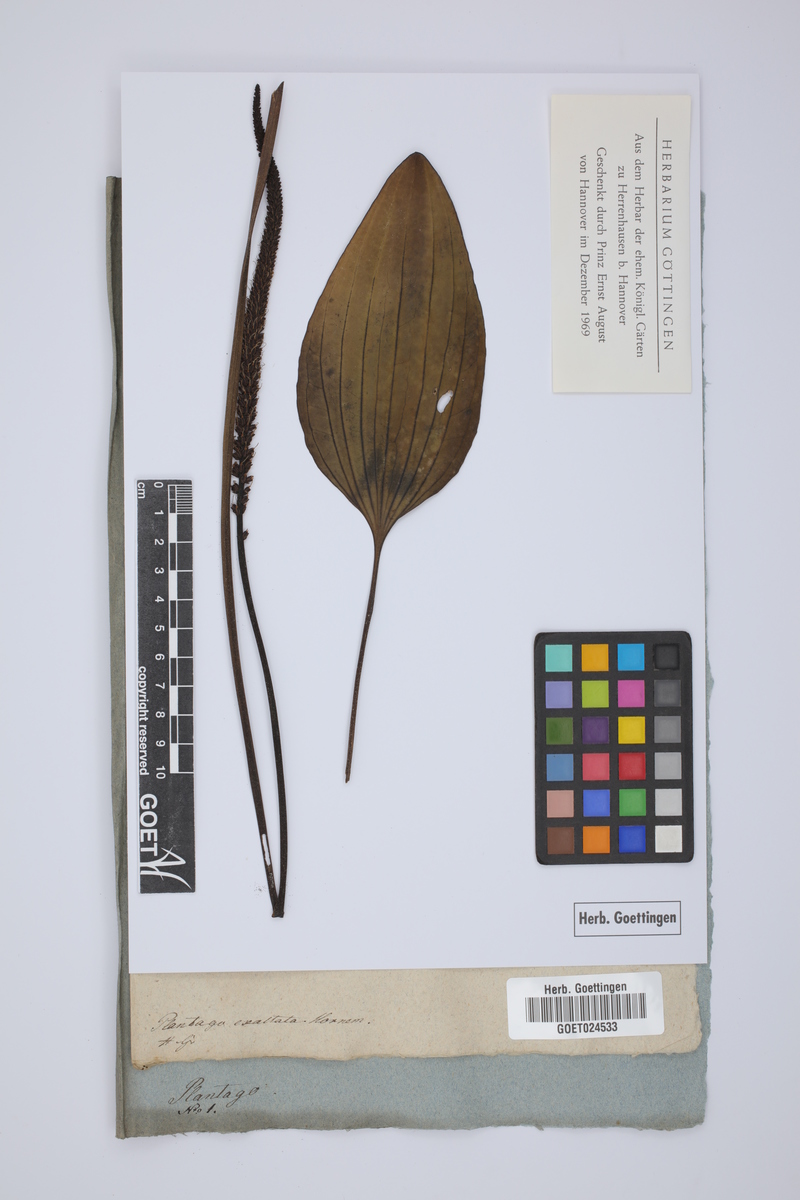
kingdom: Plantae
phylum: Tracheophyta
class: Magnoliopsida
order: Lamiales
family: Plantaginaceae
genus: Plantago
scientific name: Plantago major
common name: Common plantain
